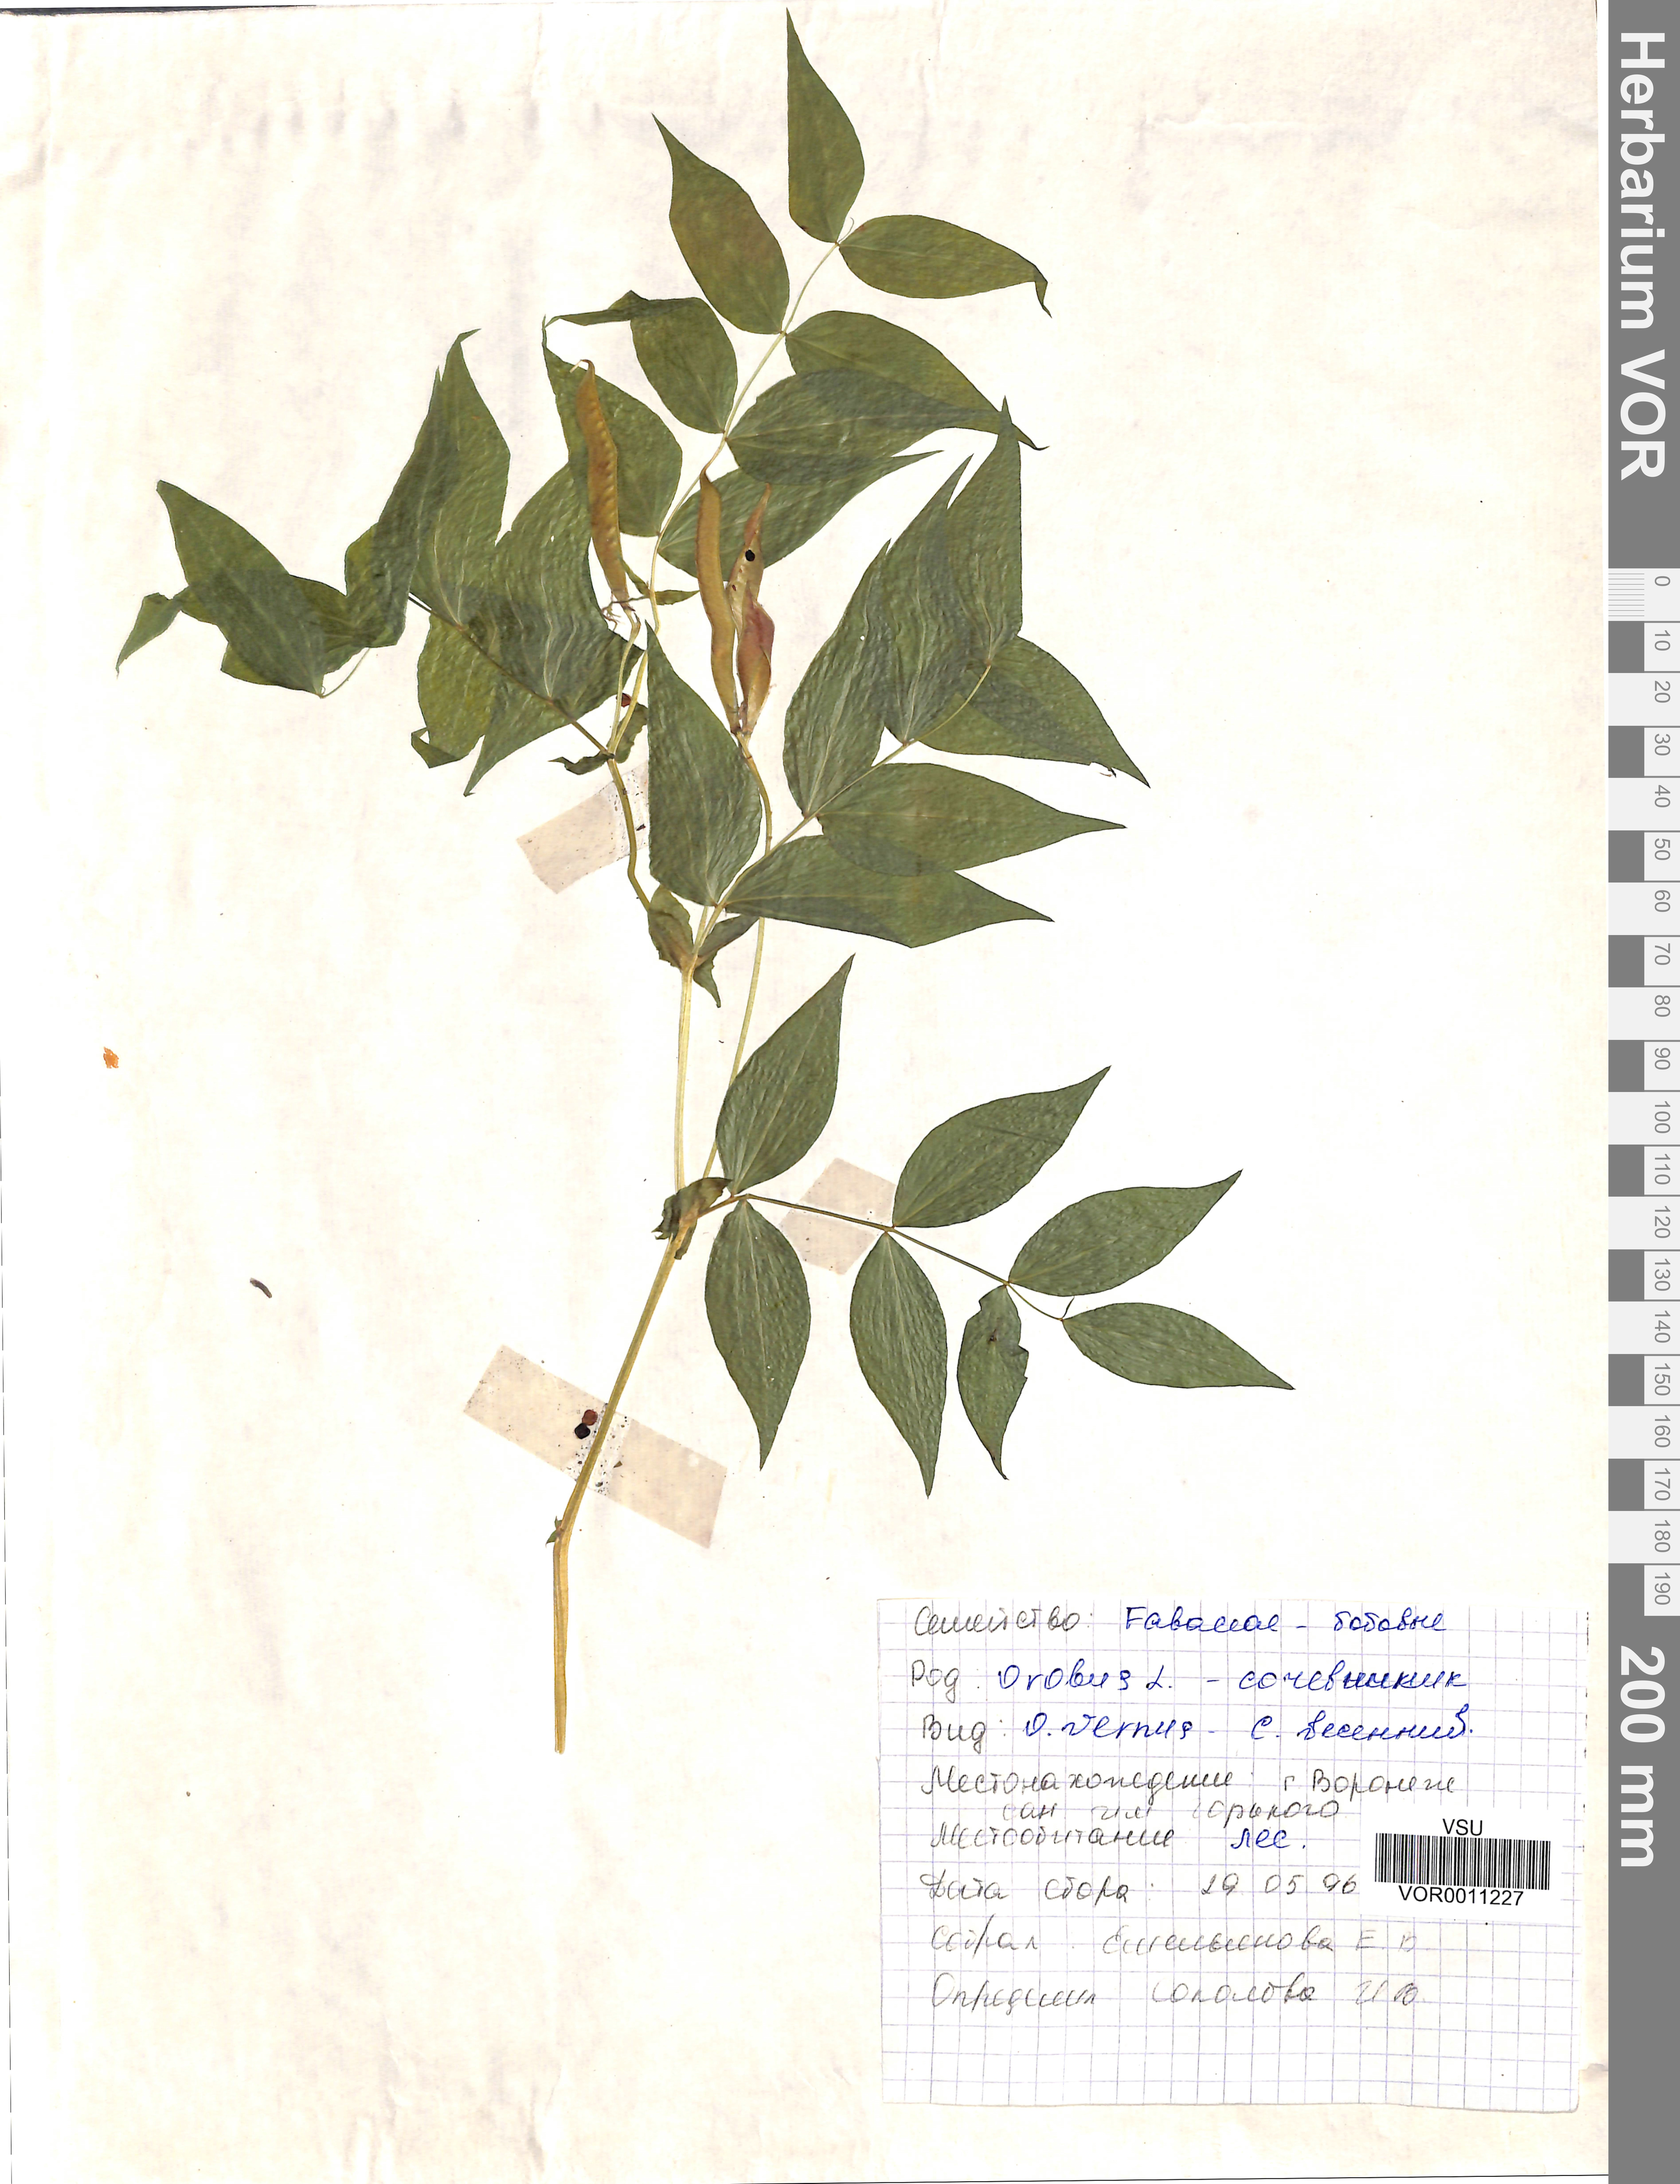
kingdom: Plantae
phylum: Tracheophyta
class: Magnoliopsida
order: Fabales
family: Fabaceae
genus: Lathyrus
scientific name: Lathyrus vernus
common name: Spring pea
